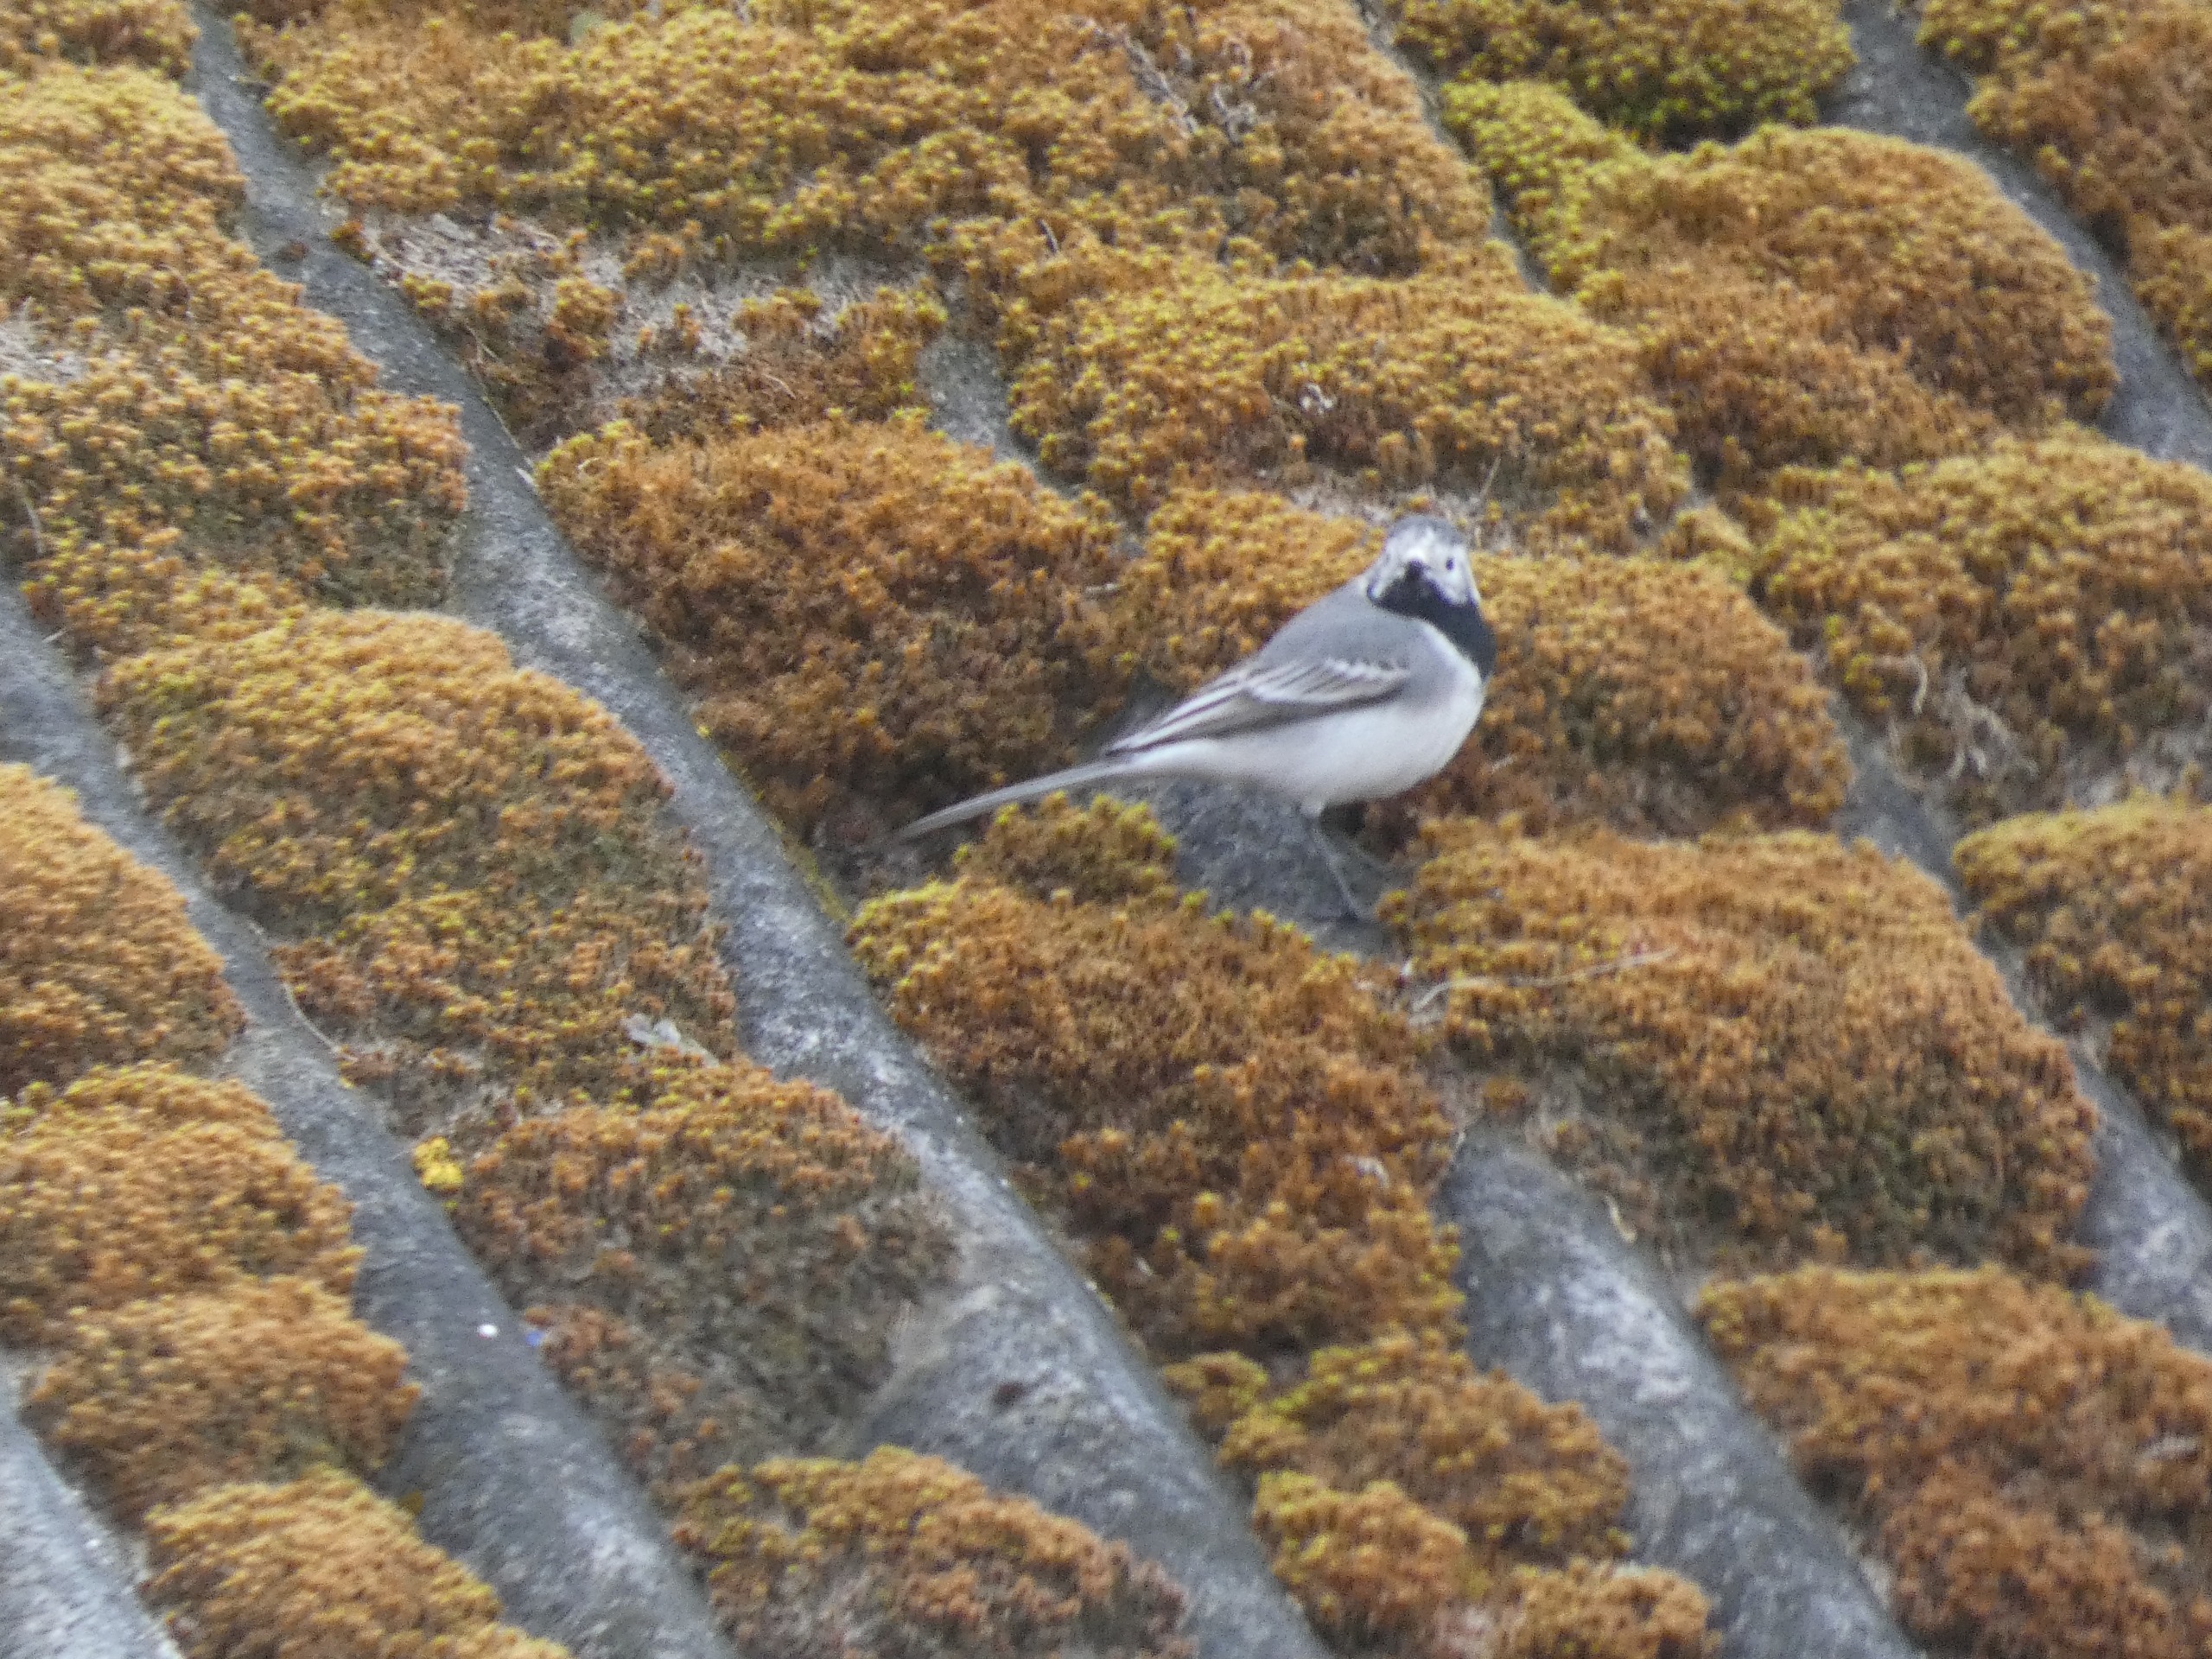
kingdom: Animalia
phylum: Chordata
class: Aves
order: Passeriformes
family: Motacillidae
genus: Motacilla
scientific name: Motacilla alba
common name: Hvid vipstjert
